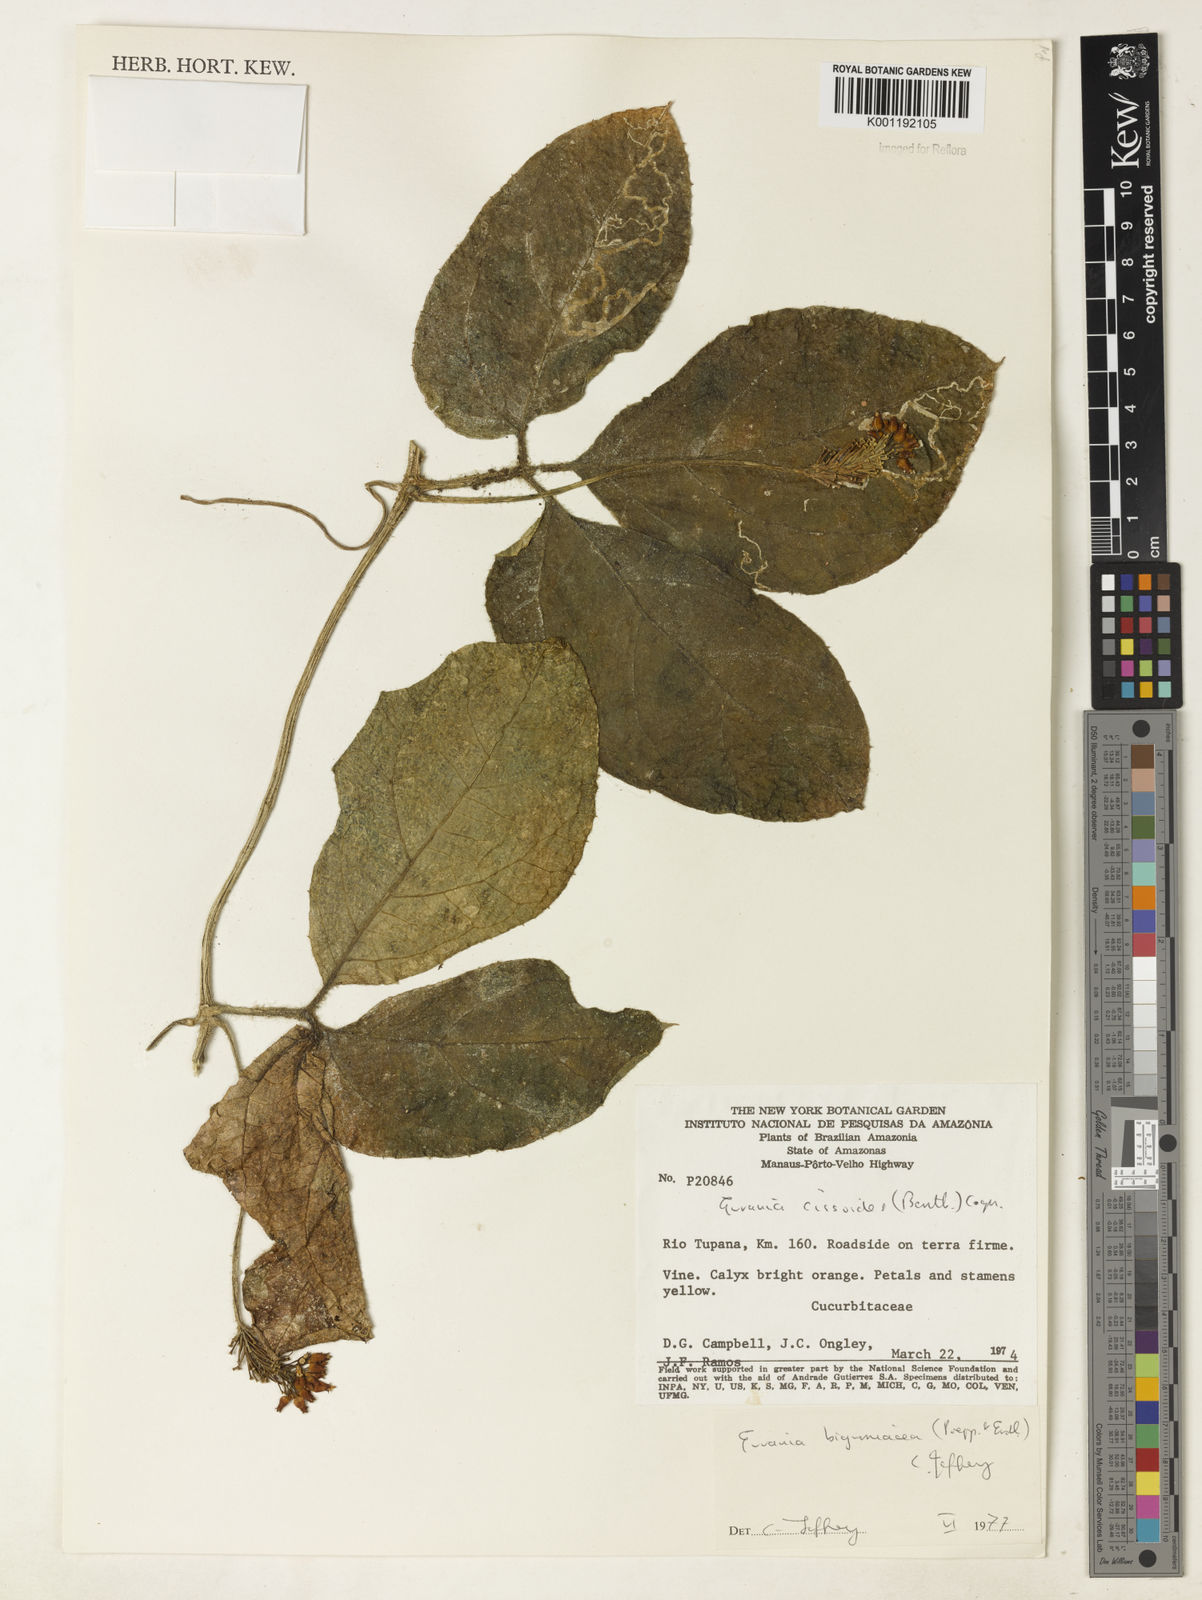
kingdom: Plantae
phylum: Tracheophyta
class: Magnoliopsida
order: Cucurbitales
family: Cucurbitaceae
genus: Gurania
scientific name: Gurania bignoniacea
